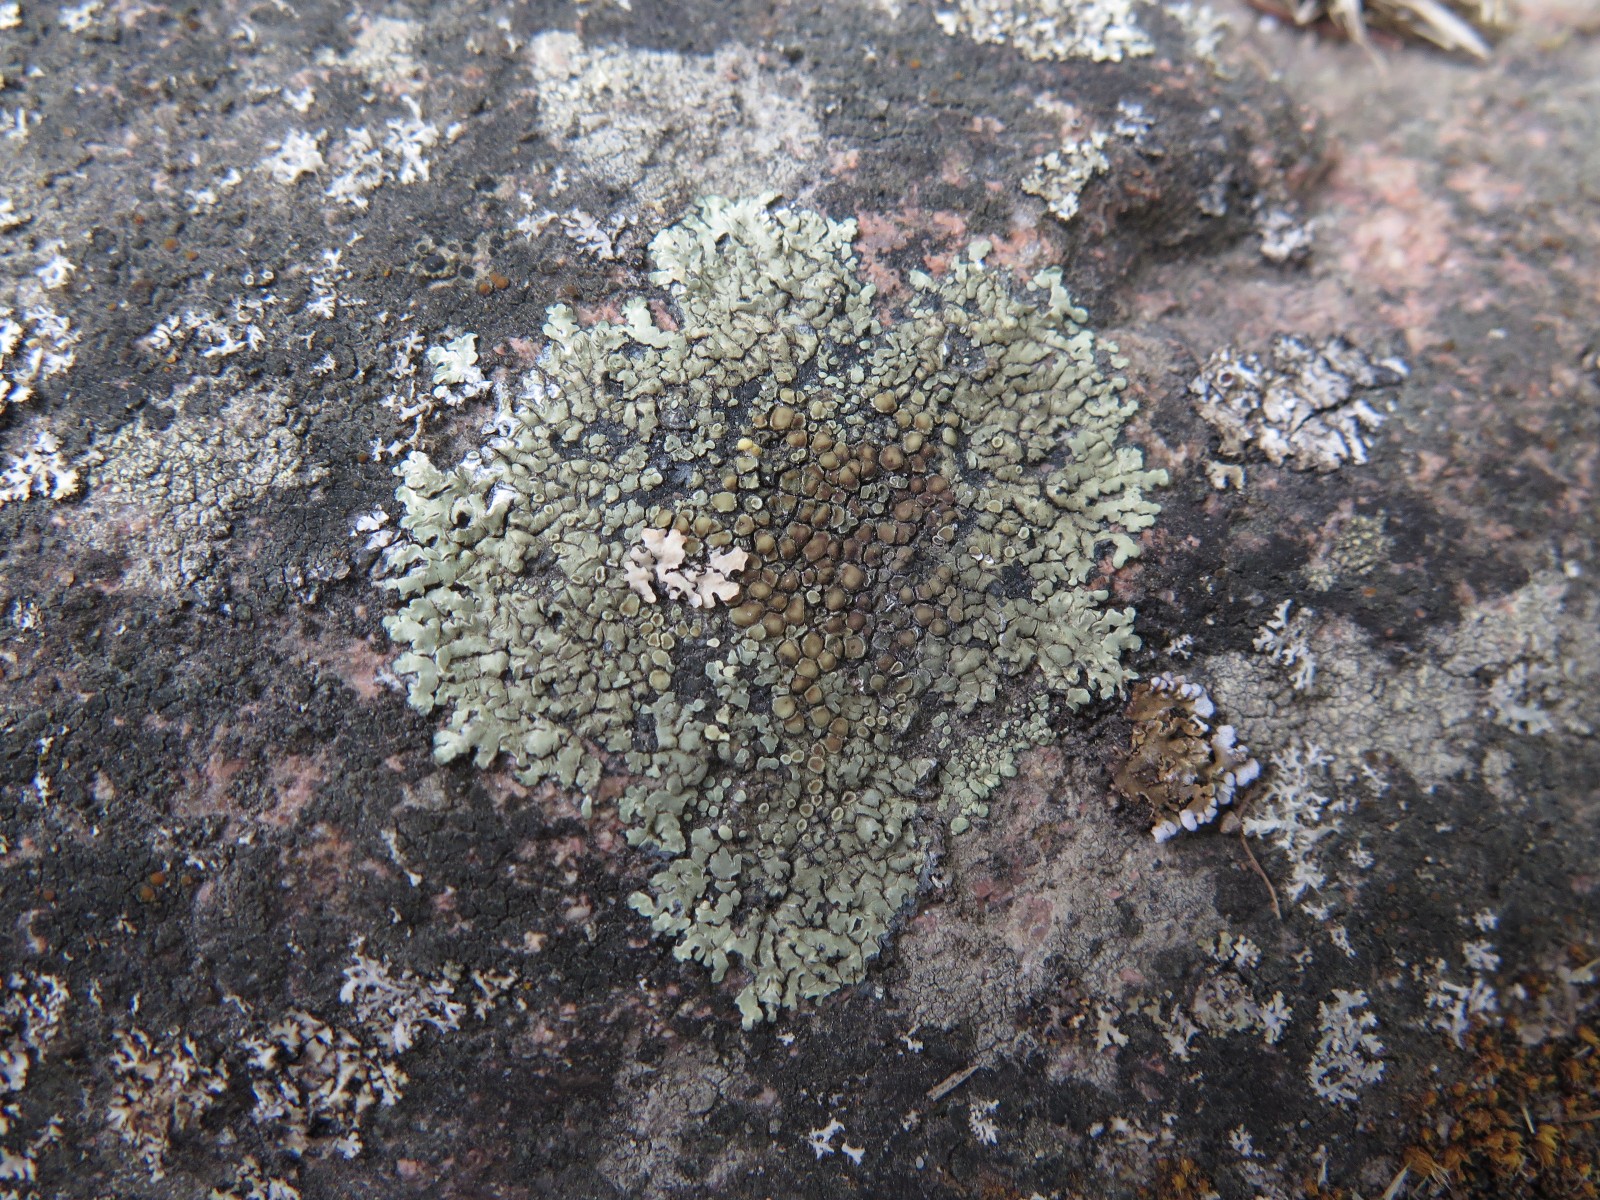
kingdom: Fungi
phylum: Ascomycota
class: Lecanoromycetes
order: Lecanorales
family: Lecanoraceae
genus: Protoparmeliopsis
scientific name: Protoparmeliopsis muralis
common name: randfliget kantskivelav
